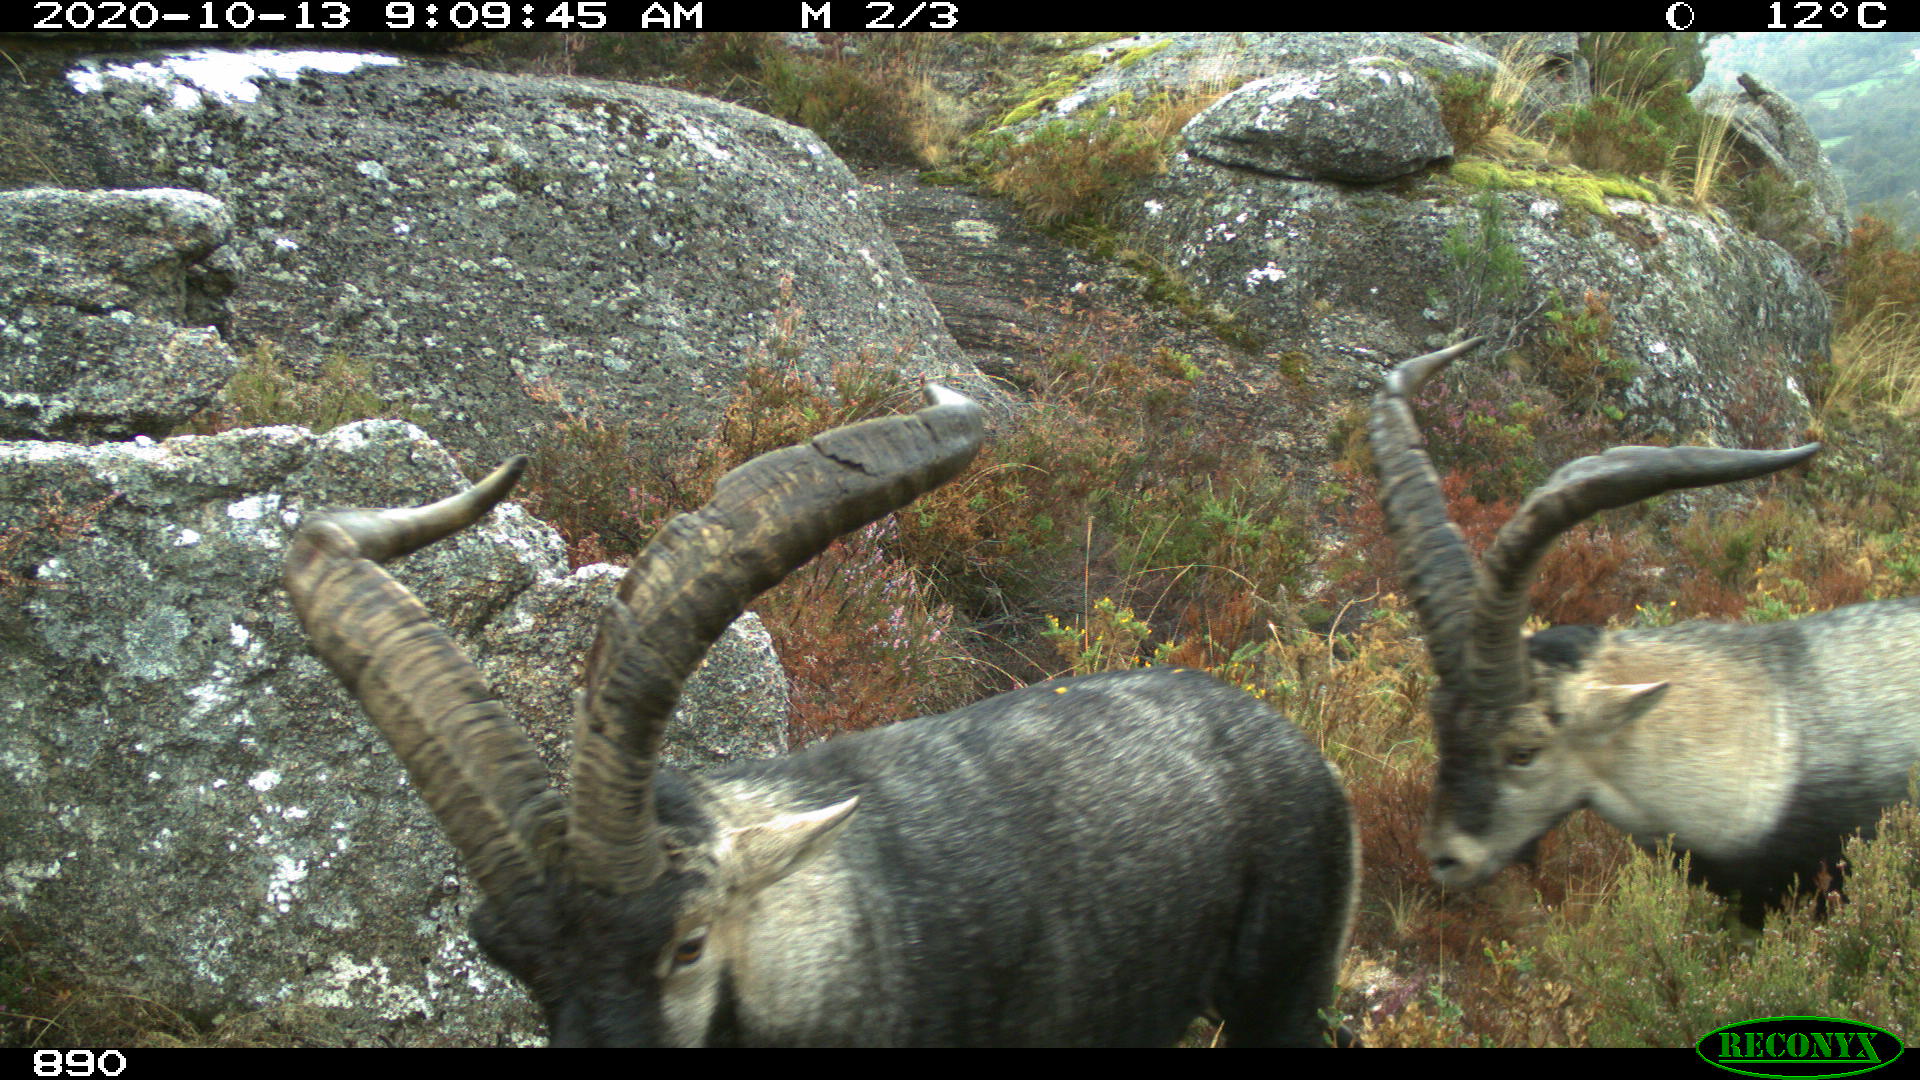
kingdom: Animalia
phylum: Chordata
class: Mammalia
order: Artiodactyla
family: Bovidae
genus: Capra
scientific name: Capra pyrenaica
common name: Spanish ibex
